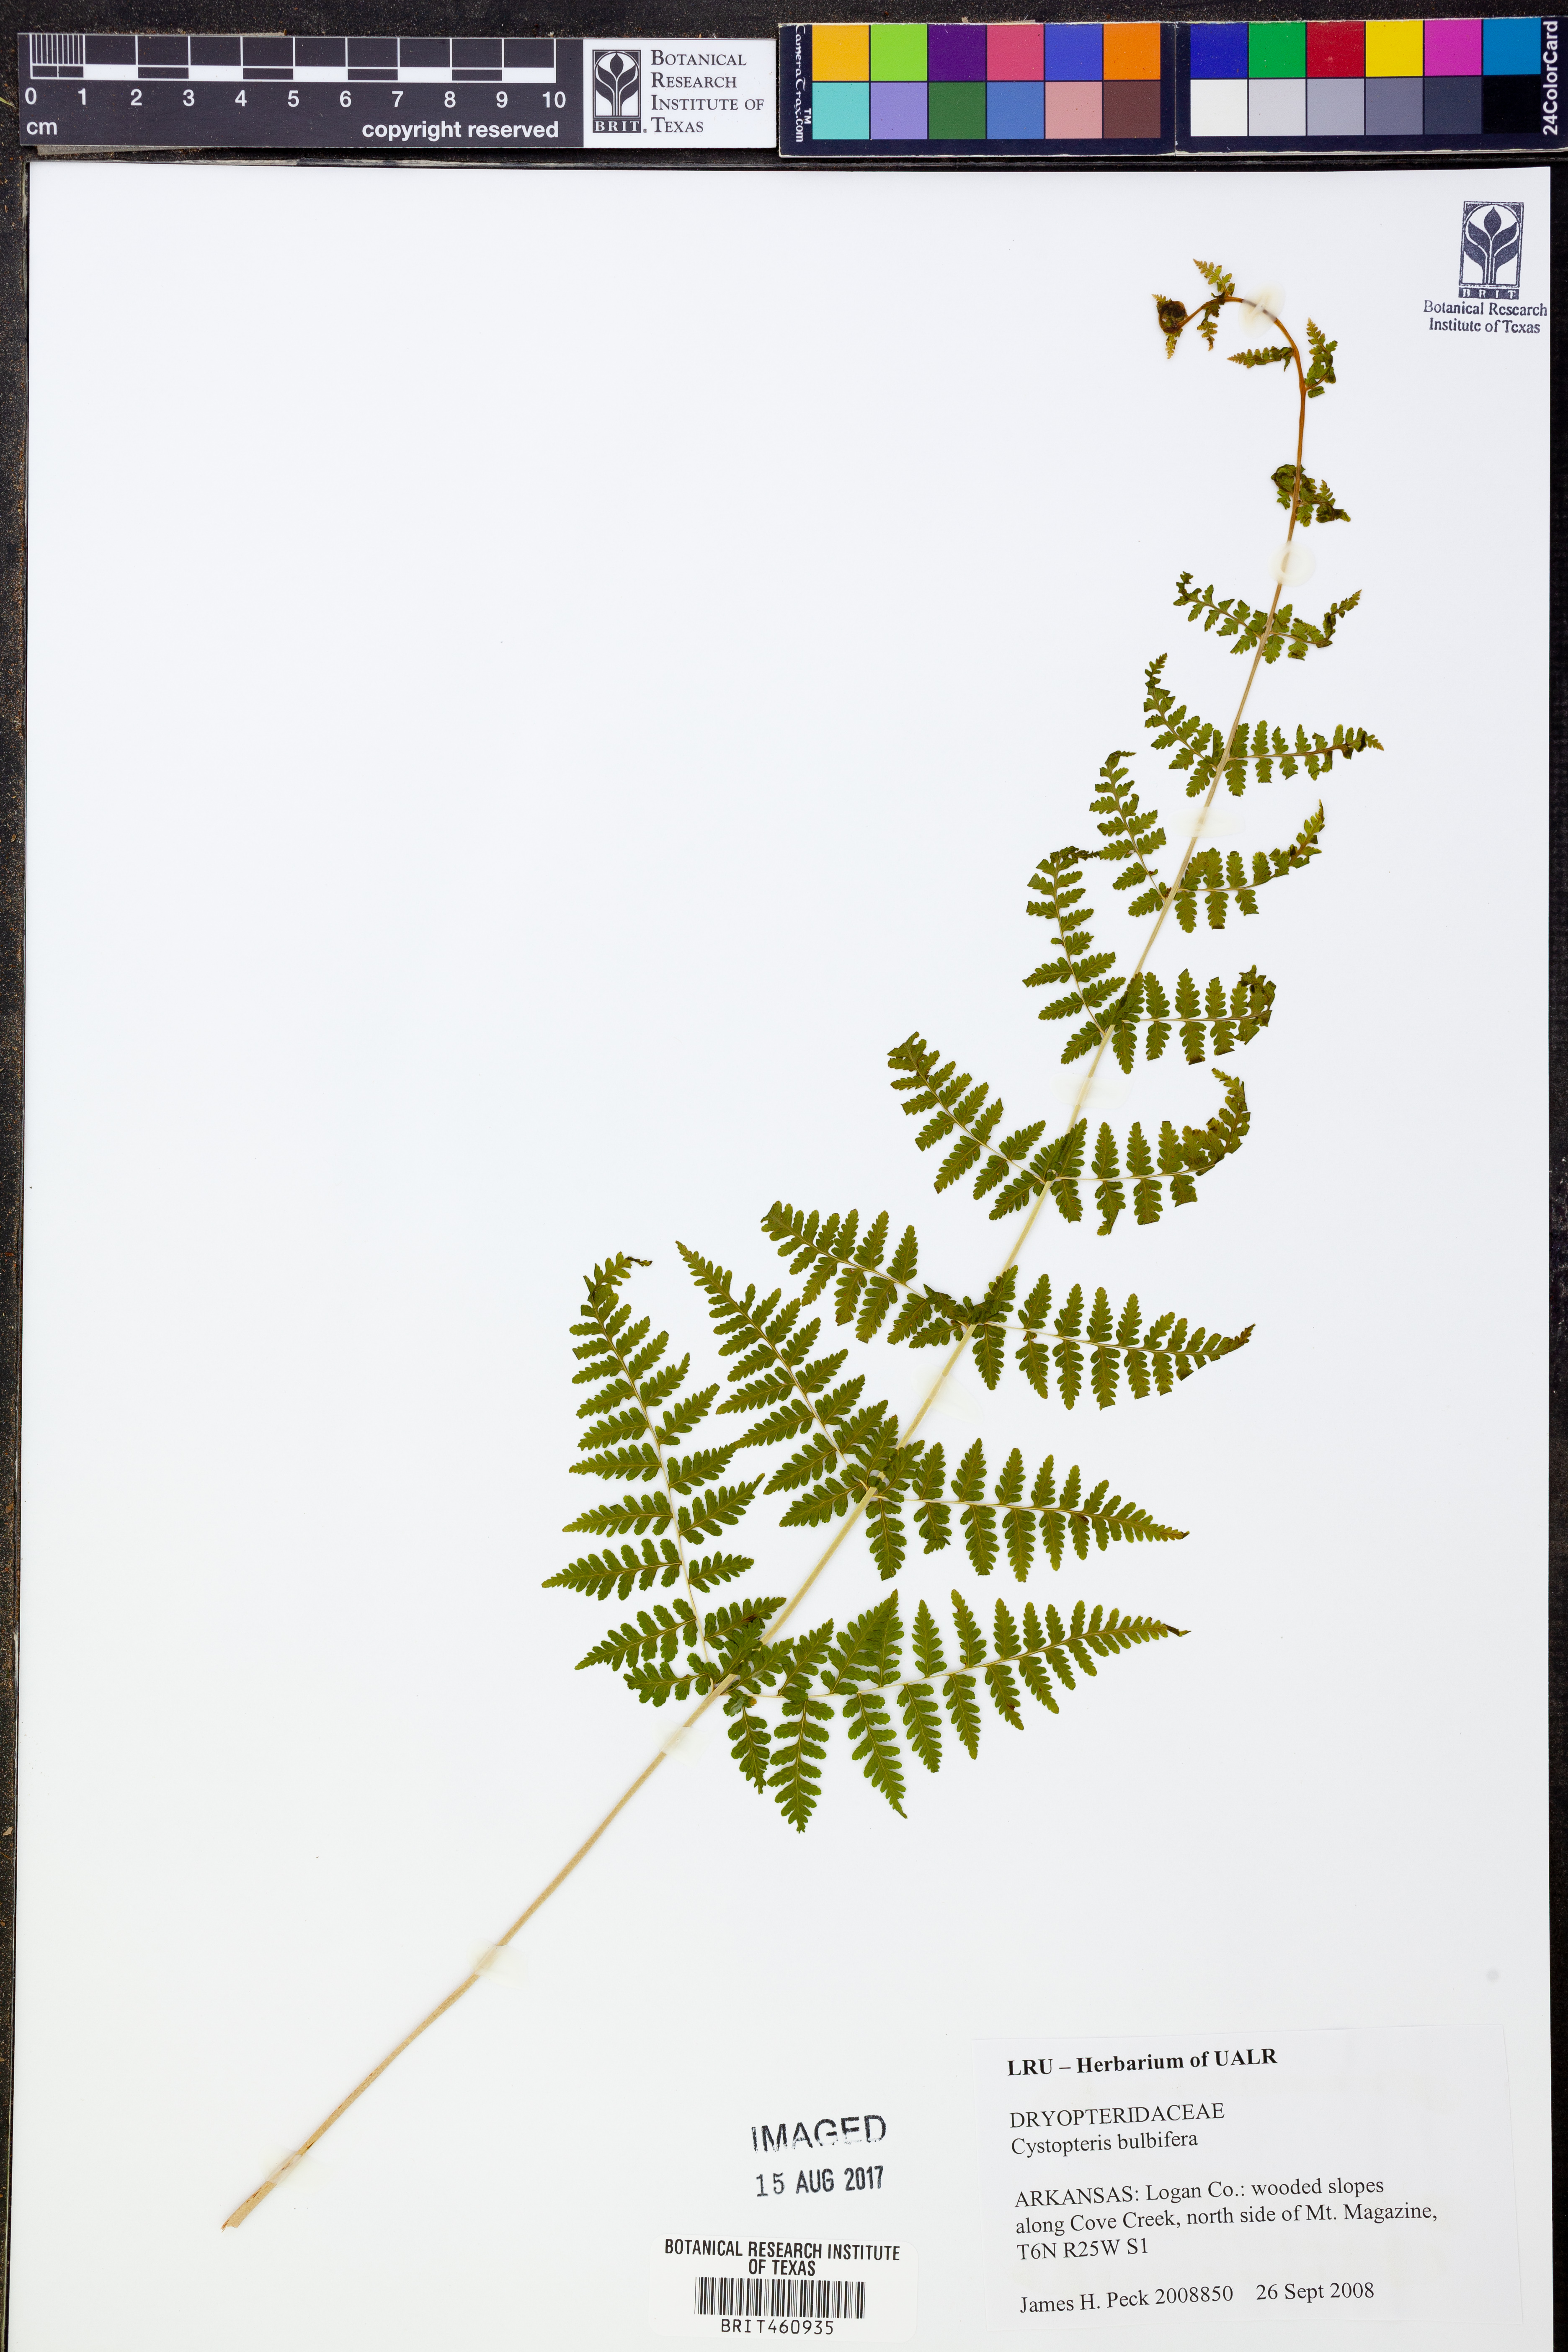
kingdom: Plantae
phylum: Tracheophyta
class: Polypodiopsida
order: Polypodiales
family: Cystopteridaceae
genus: Cystopteris
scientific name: Cystopteris bulbifera
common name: Bulblet bladder fern
